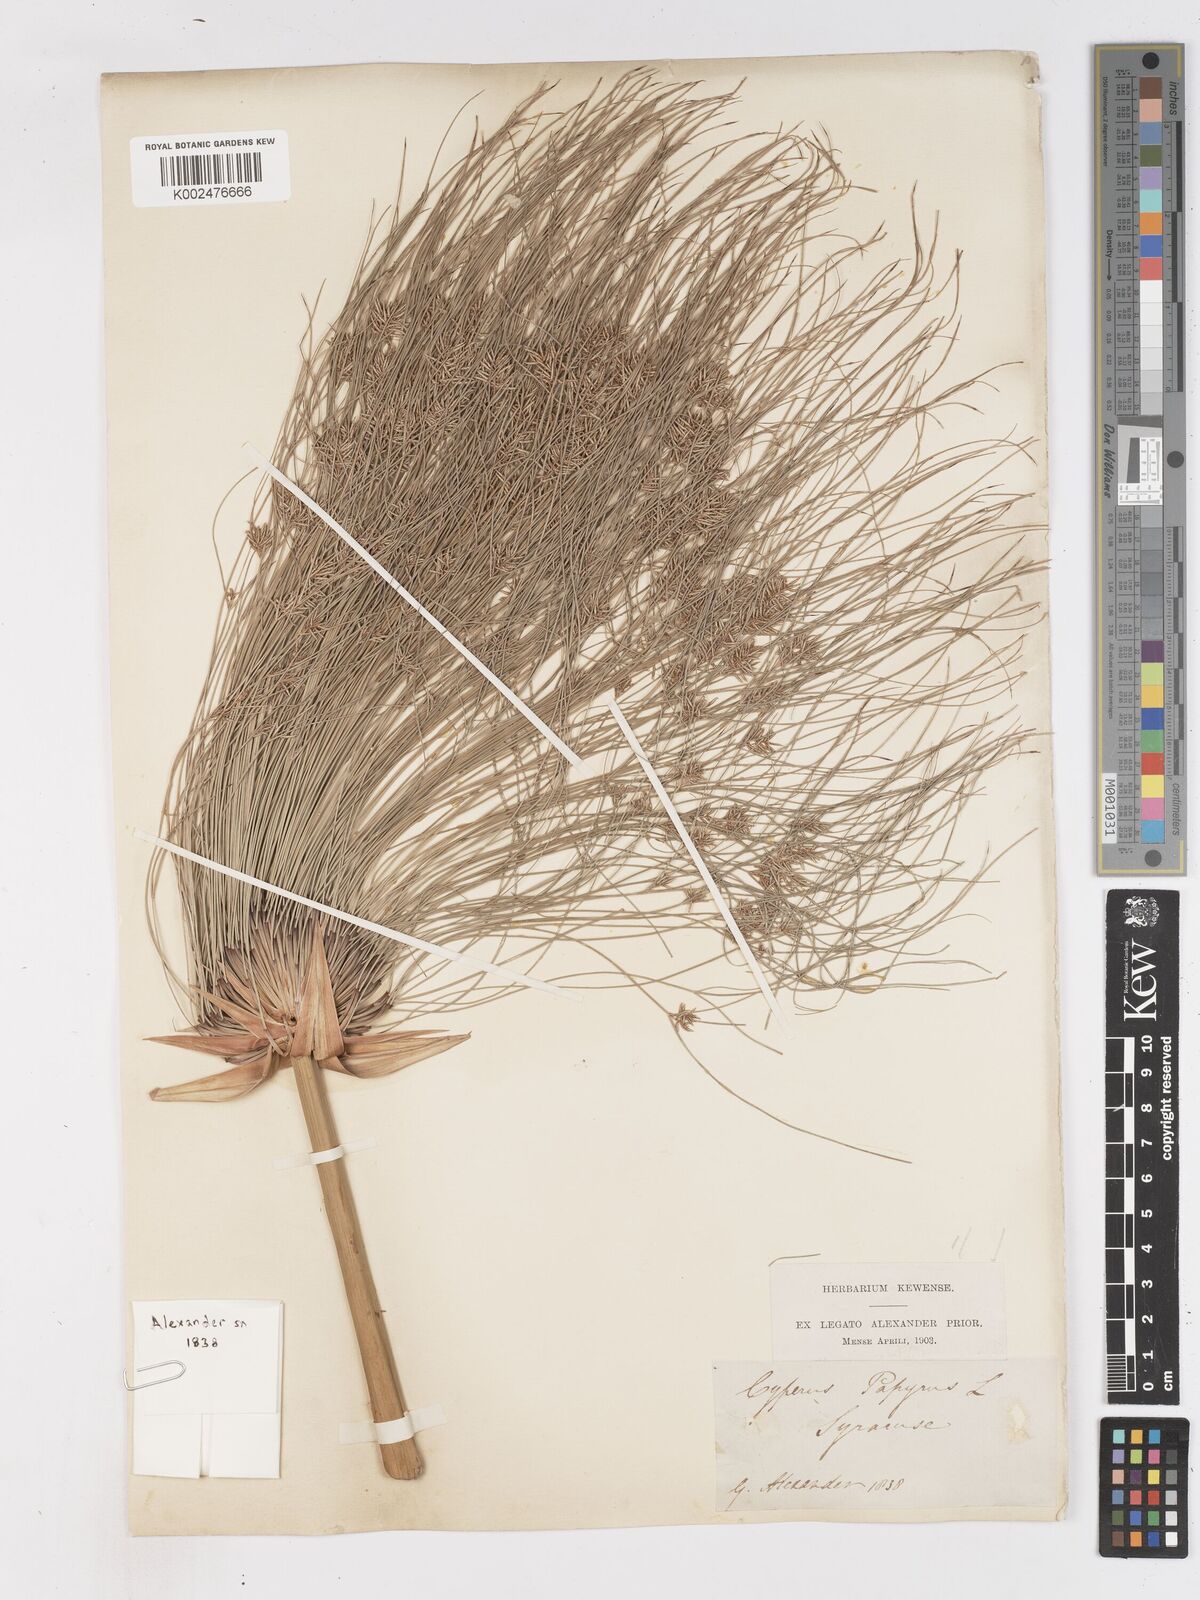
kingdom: Plantae
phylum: Tracheophyta
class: Liliopsida
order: Poales
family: Cyperaceae
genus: Cyperus
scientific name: Cyperus papyrus
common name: Papyrus
